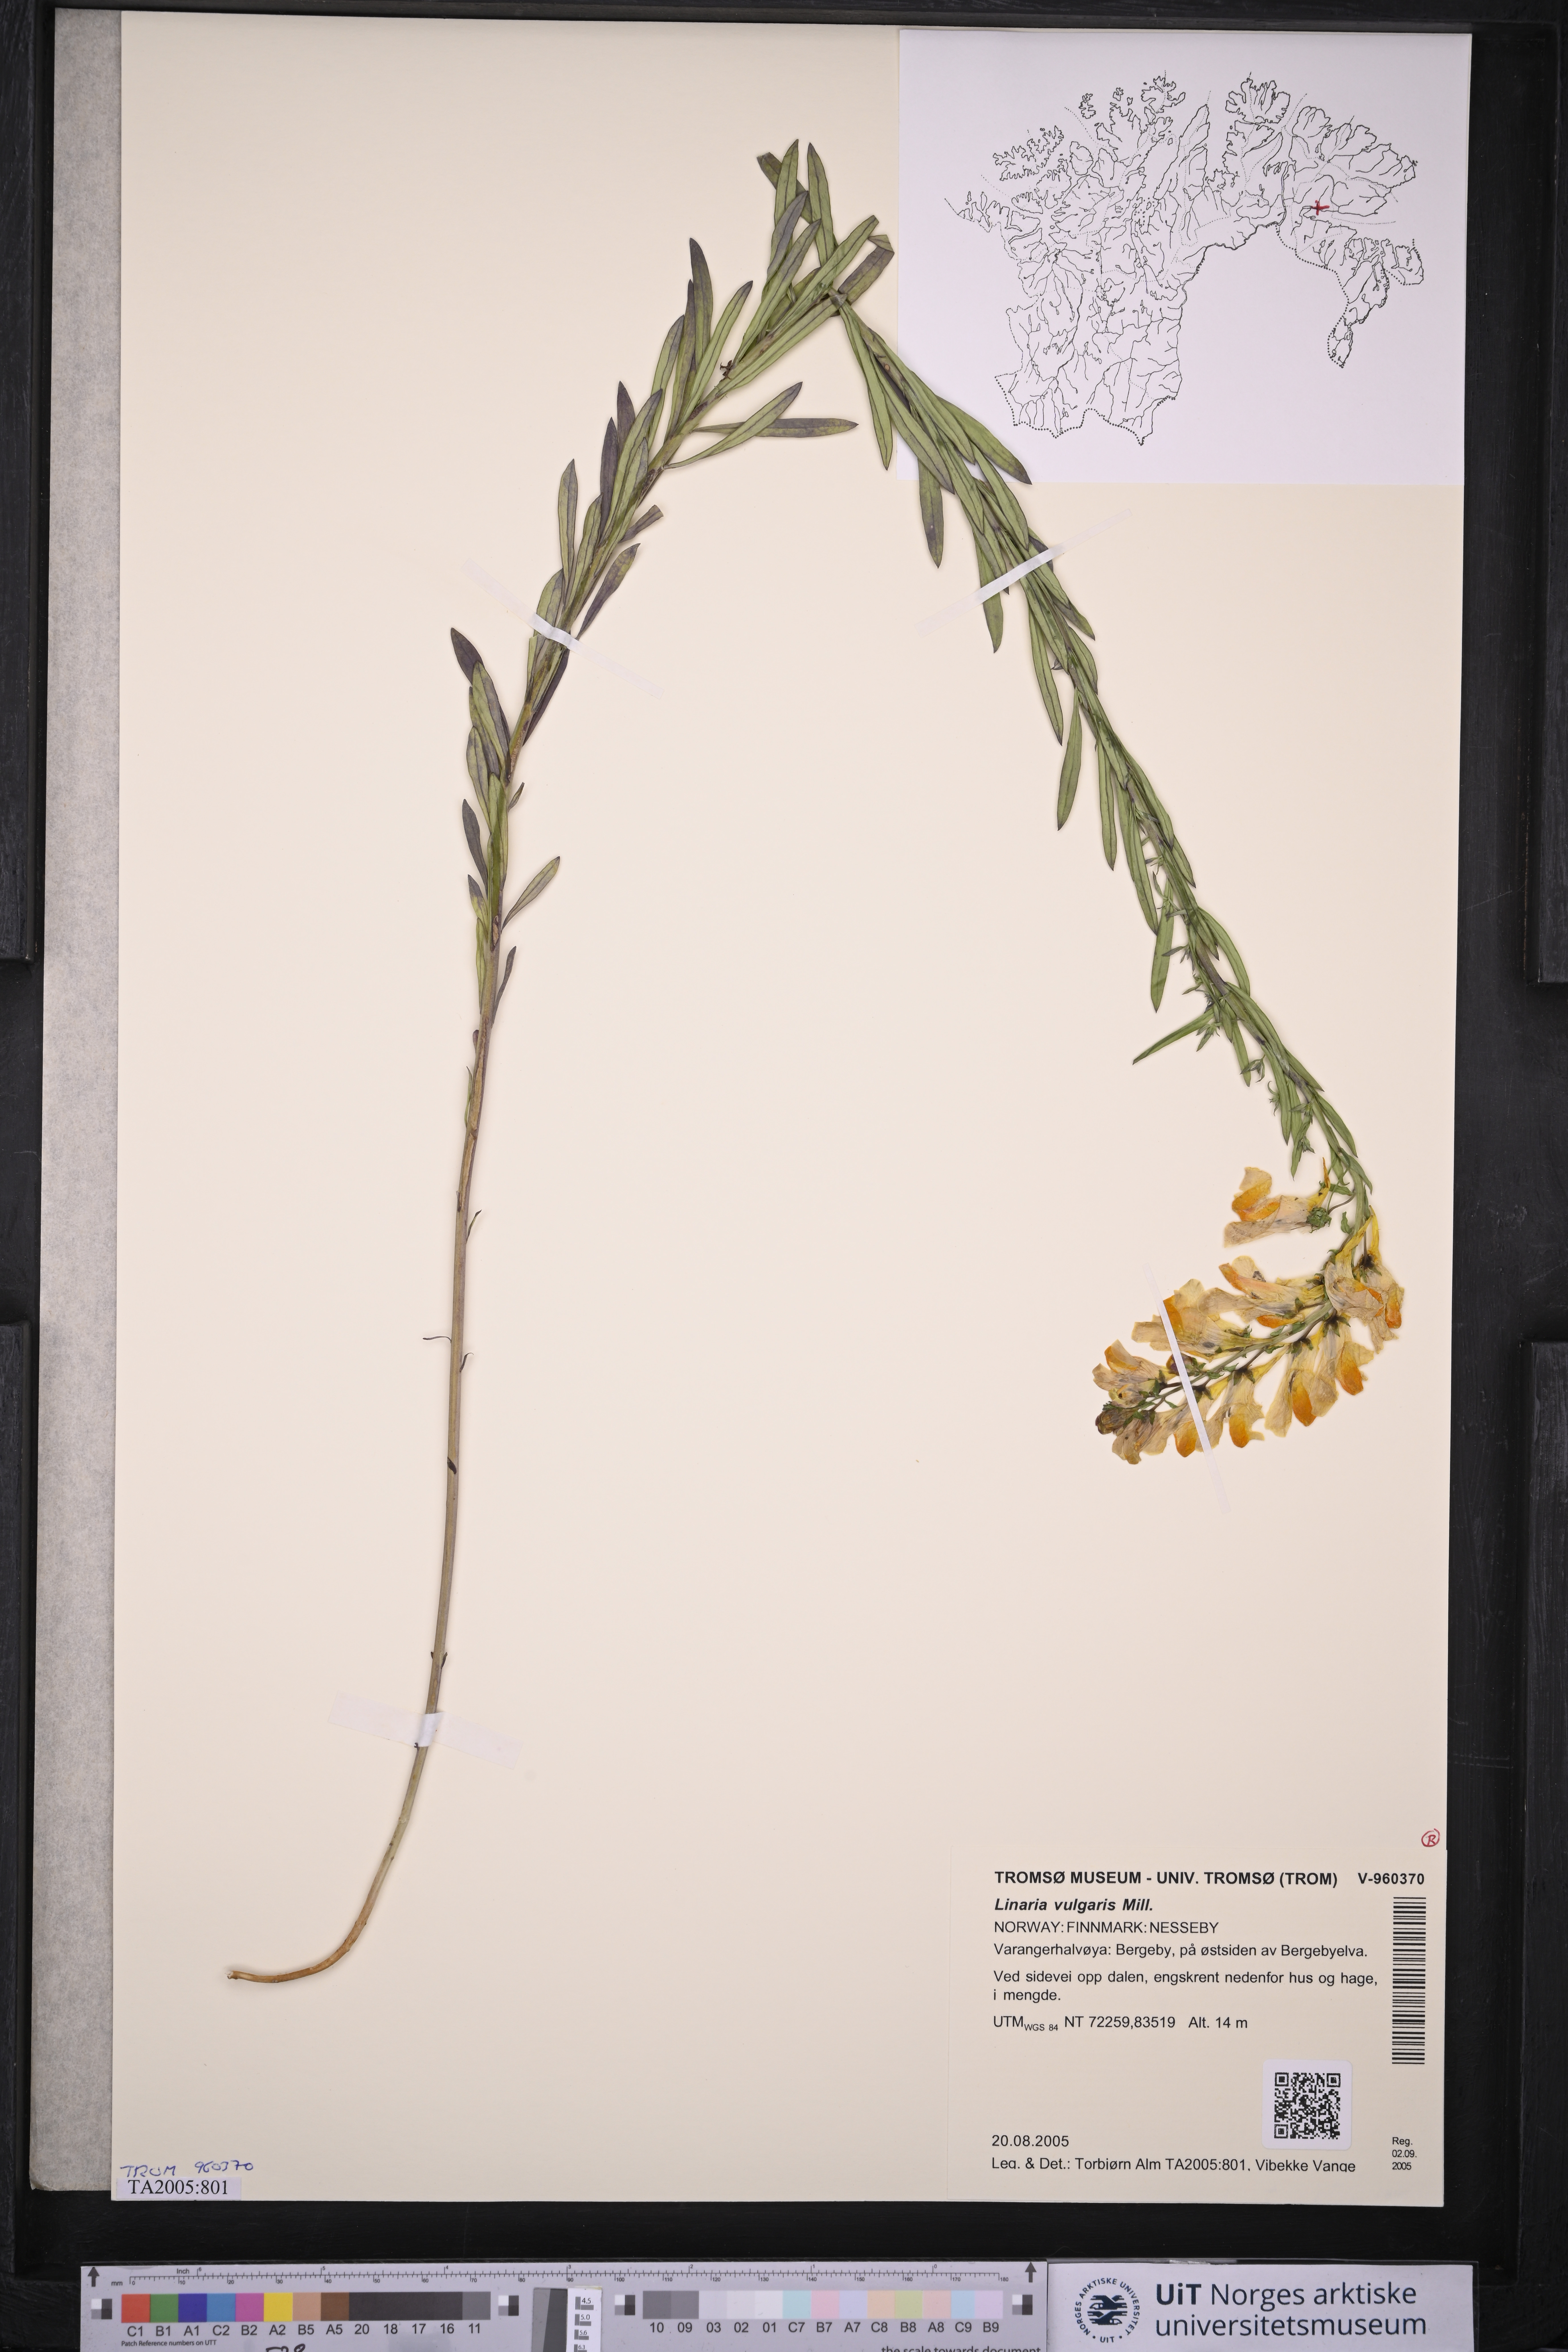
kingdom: Plantae
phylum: Tracheophyta
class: Magnoliopsida
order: Lamiales
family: Plantaginaceae
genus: Linaria
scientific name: Linaria vulgaris
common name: Butter and eggs
